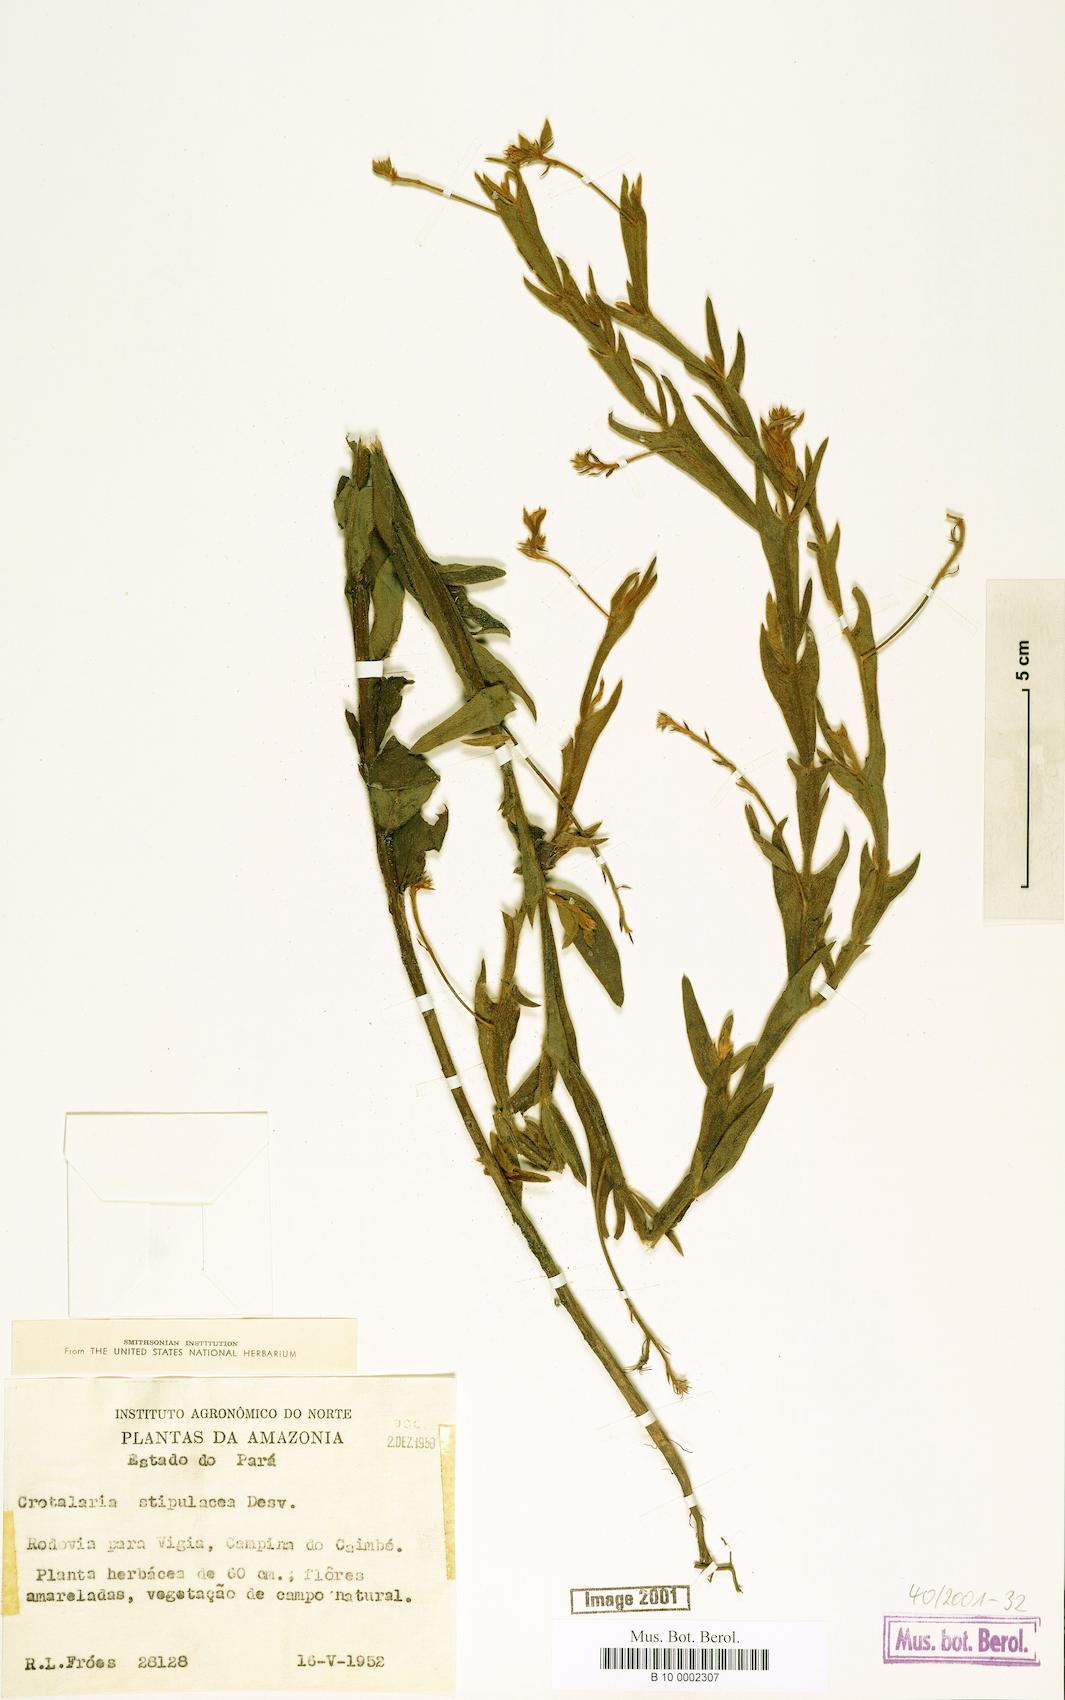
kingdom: Plantae
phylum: Tracheophyta
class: Magnoliopsida
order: Fabales
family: Fabaceae
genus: Crotalaria
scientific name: Crotalaria mysorensis
